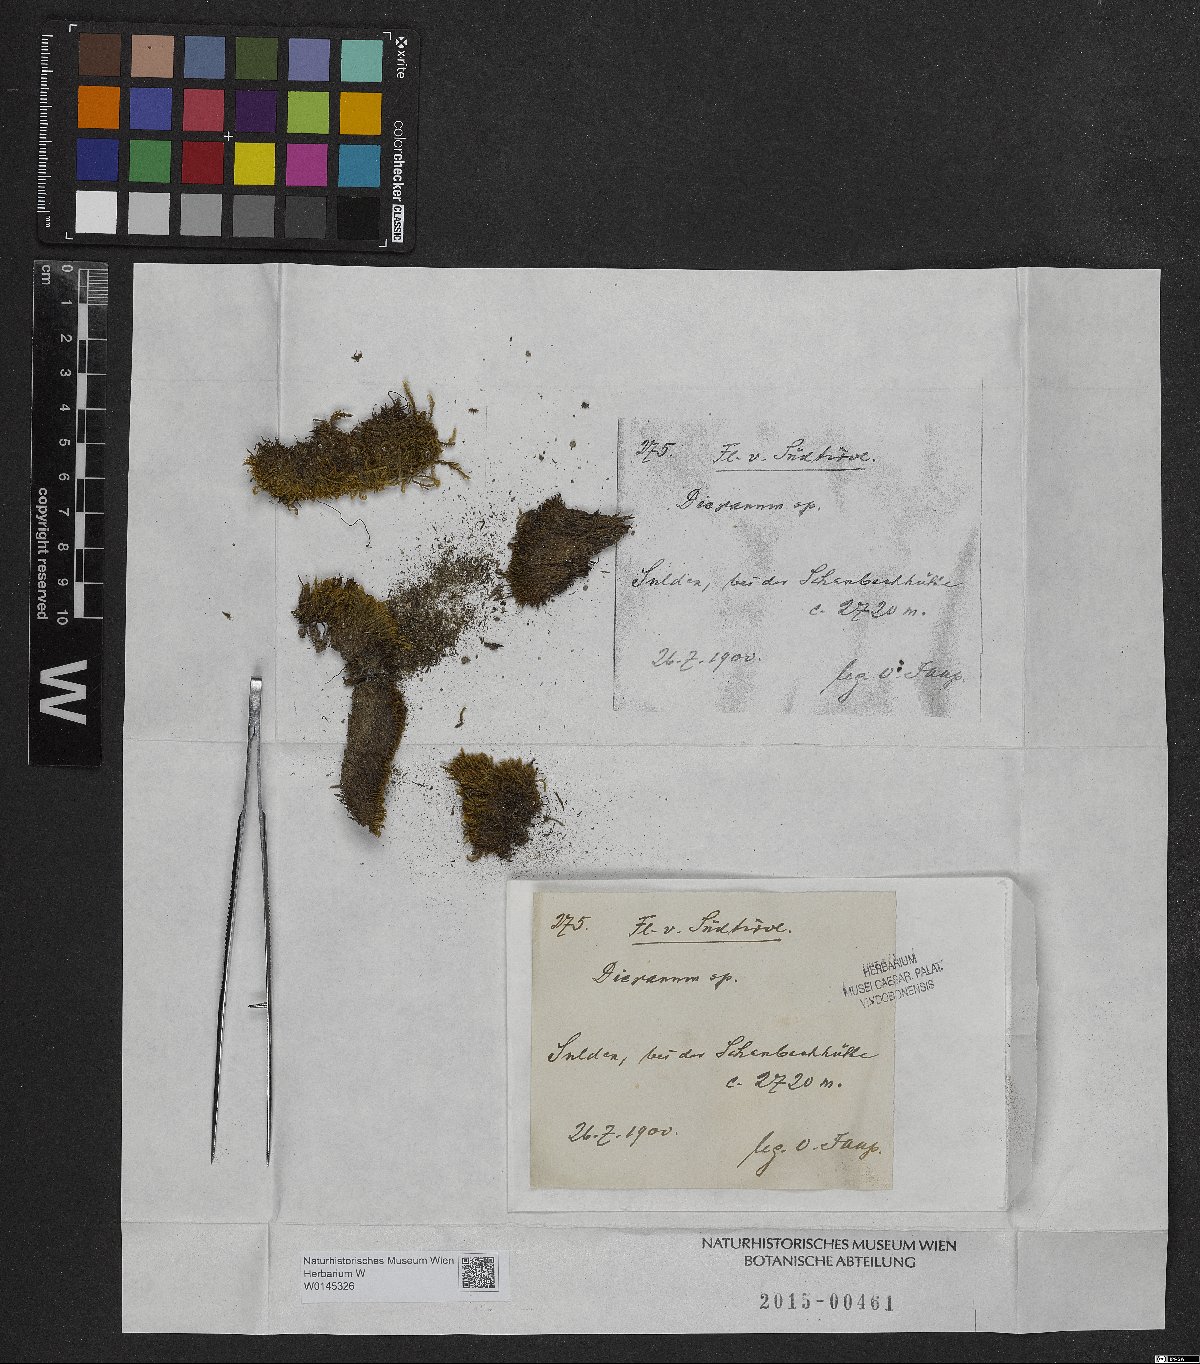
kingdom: Plantae
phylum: Bryophyta
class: Bryopsida
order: Dicranales
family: Dicranaceae
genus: Dicranum
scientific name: Dicranum
